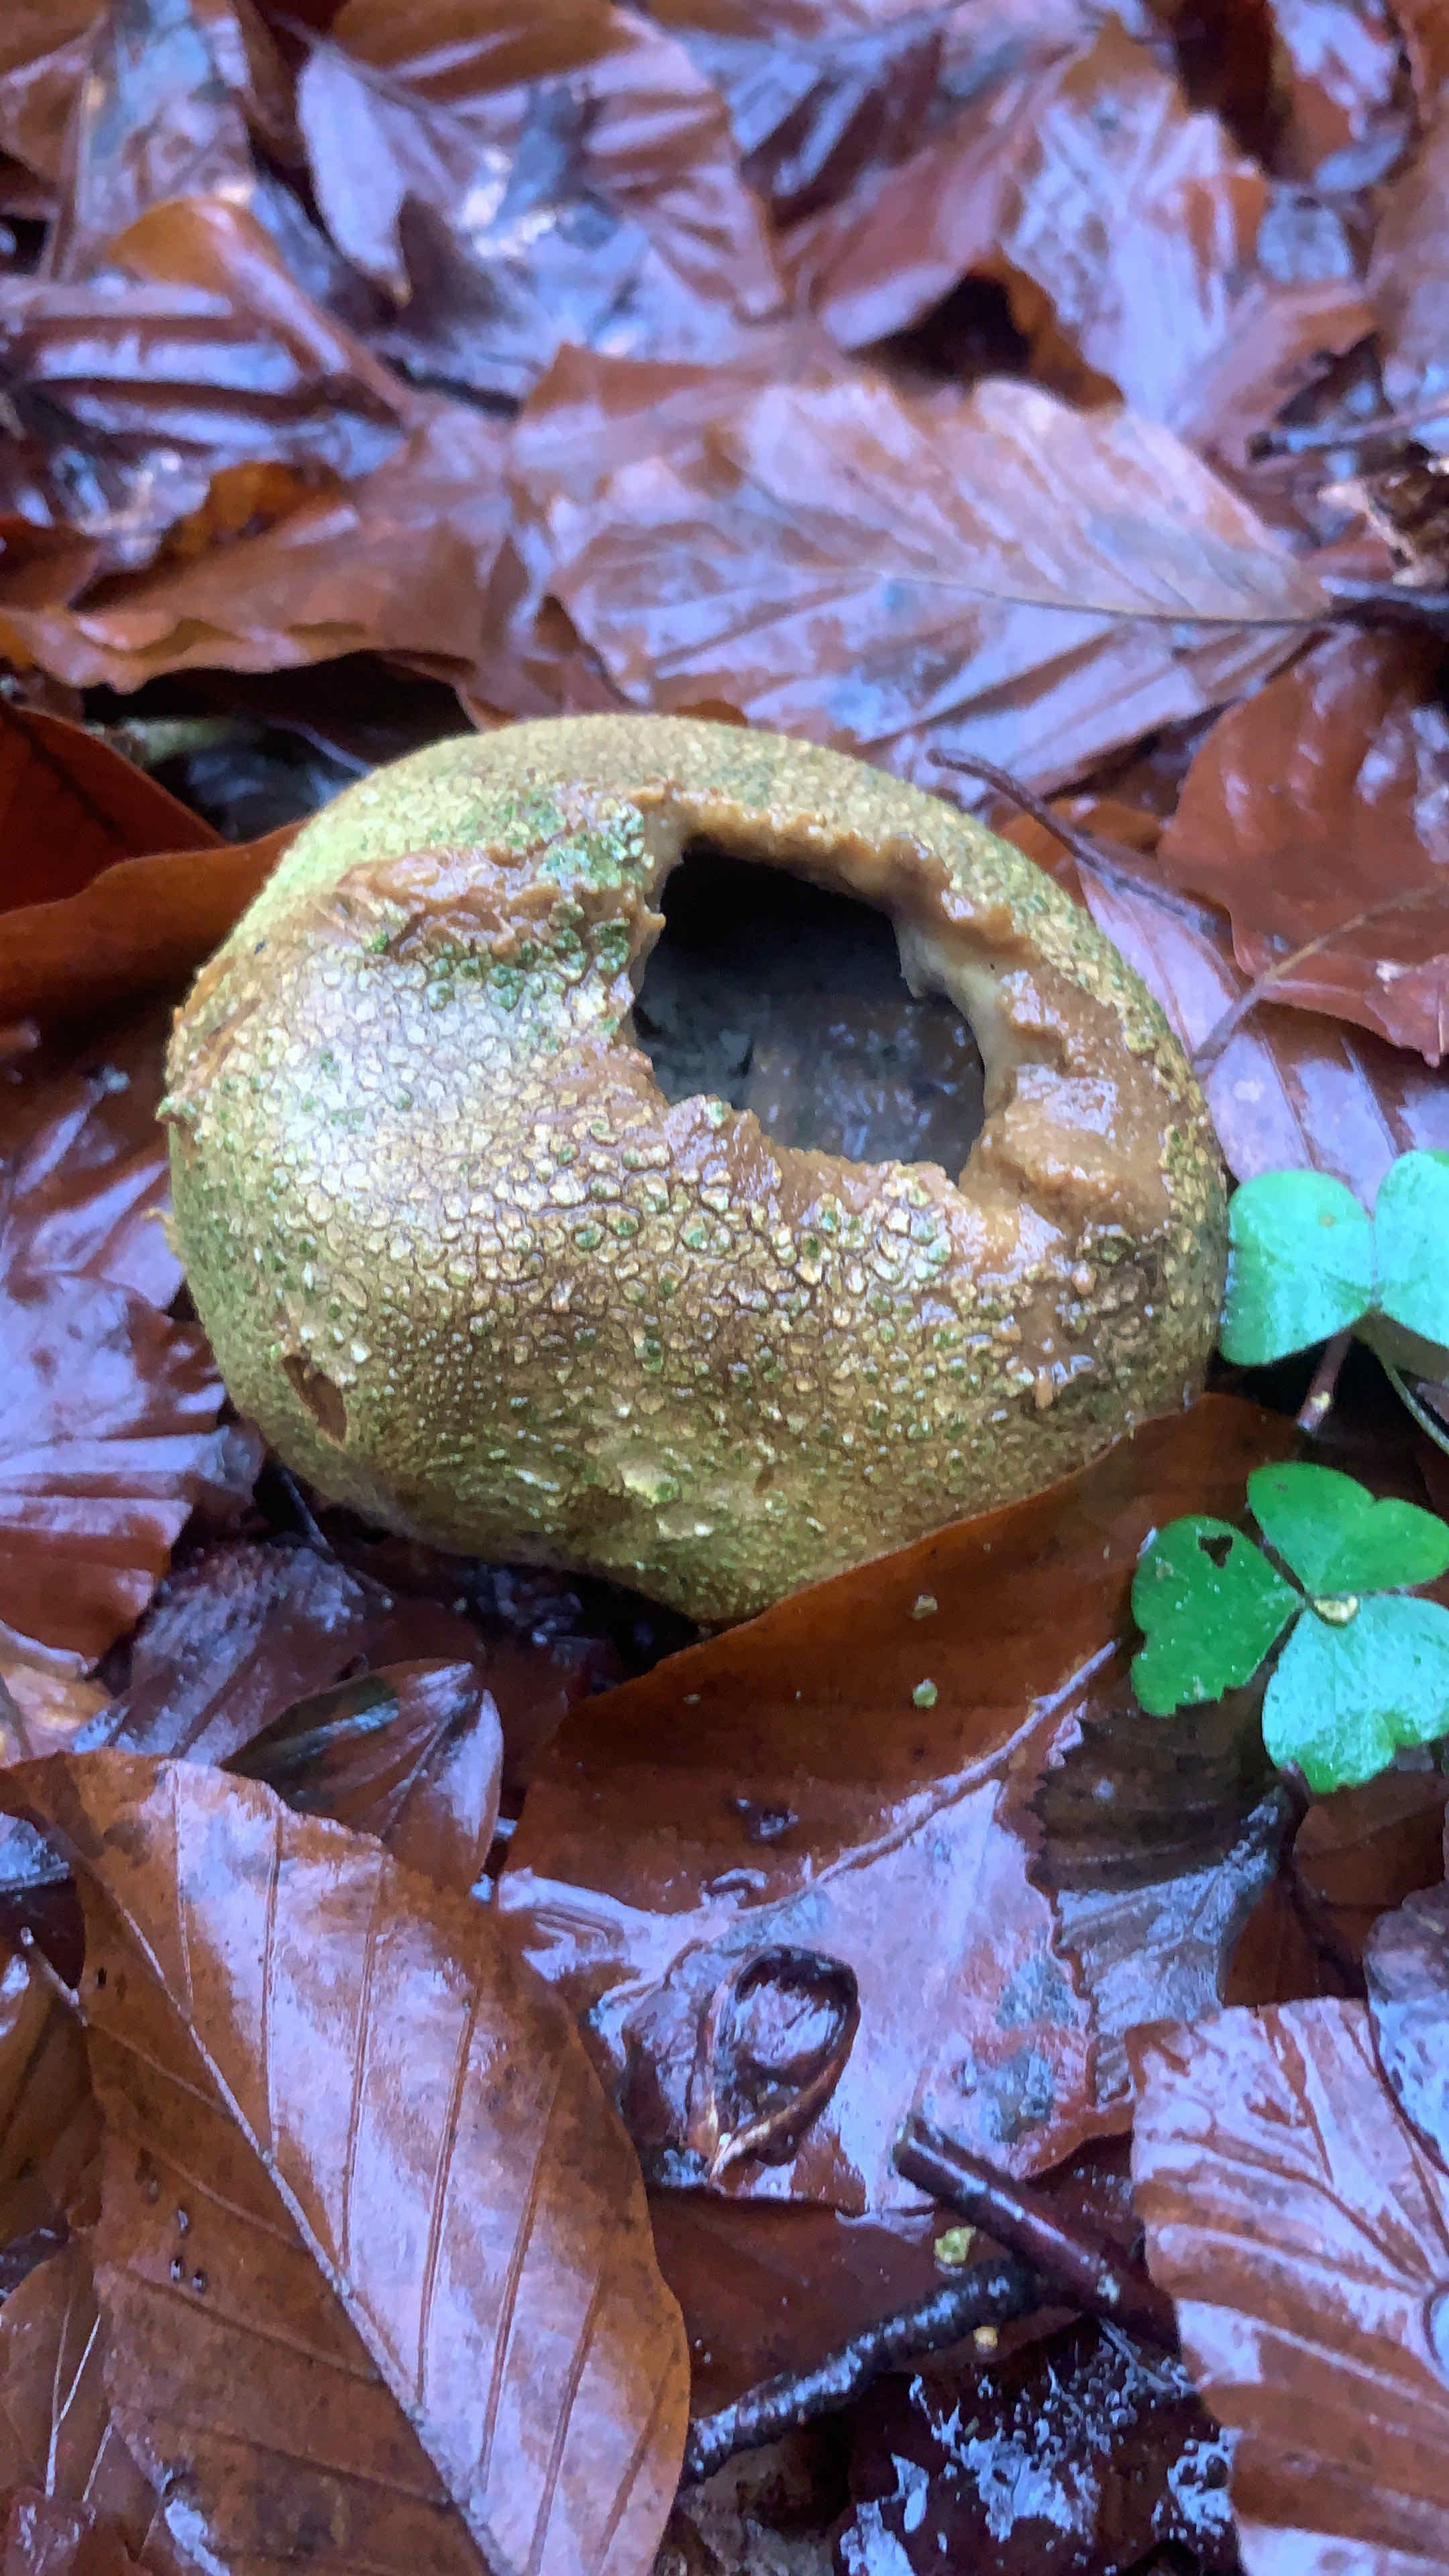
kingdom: Fungi
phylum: Basidiomycota
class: Agaricomycetes
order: Boletales
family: Sclerodermataceae
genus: Scleroderma
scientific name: Scleroderma citrinum
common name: almindelig bruskbold
